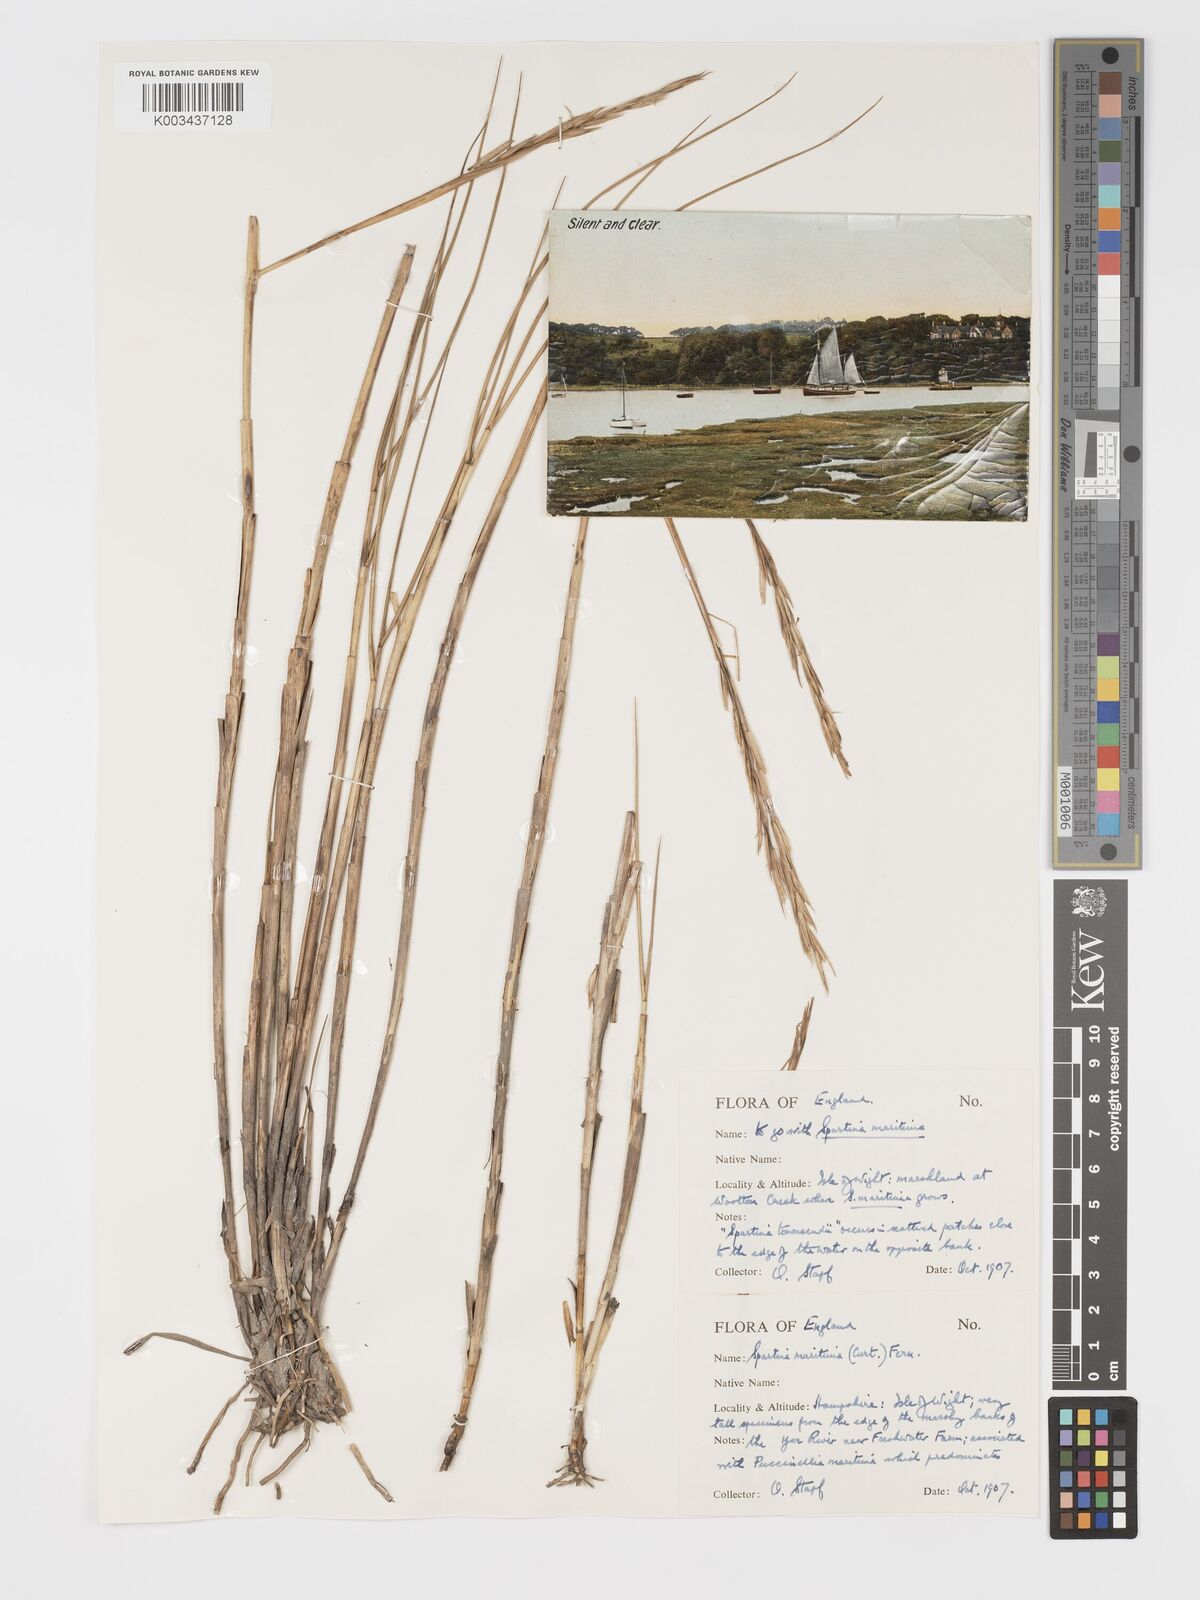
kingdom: Plantae
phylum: Tracheophyta
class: Liliopsida
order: Poales
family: Poaceae
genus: Sporobolus
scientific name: Sporobolus maritimus
